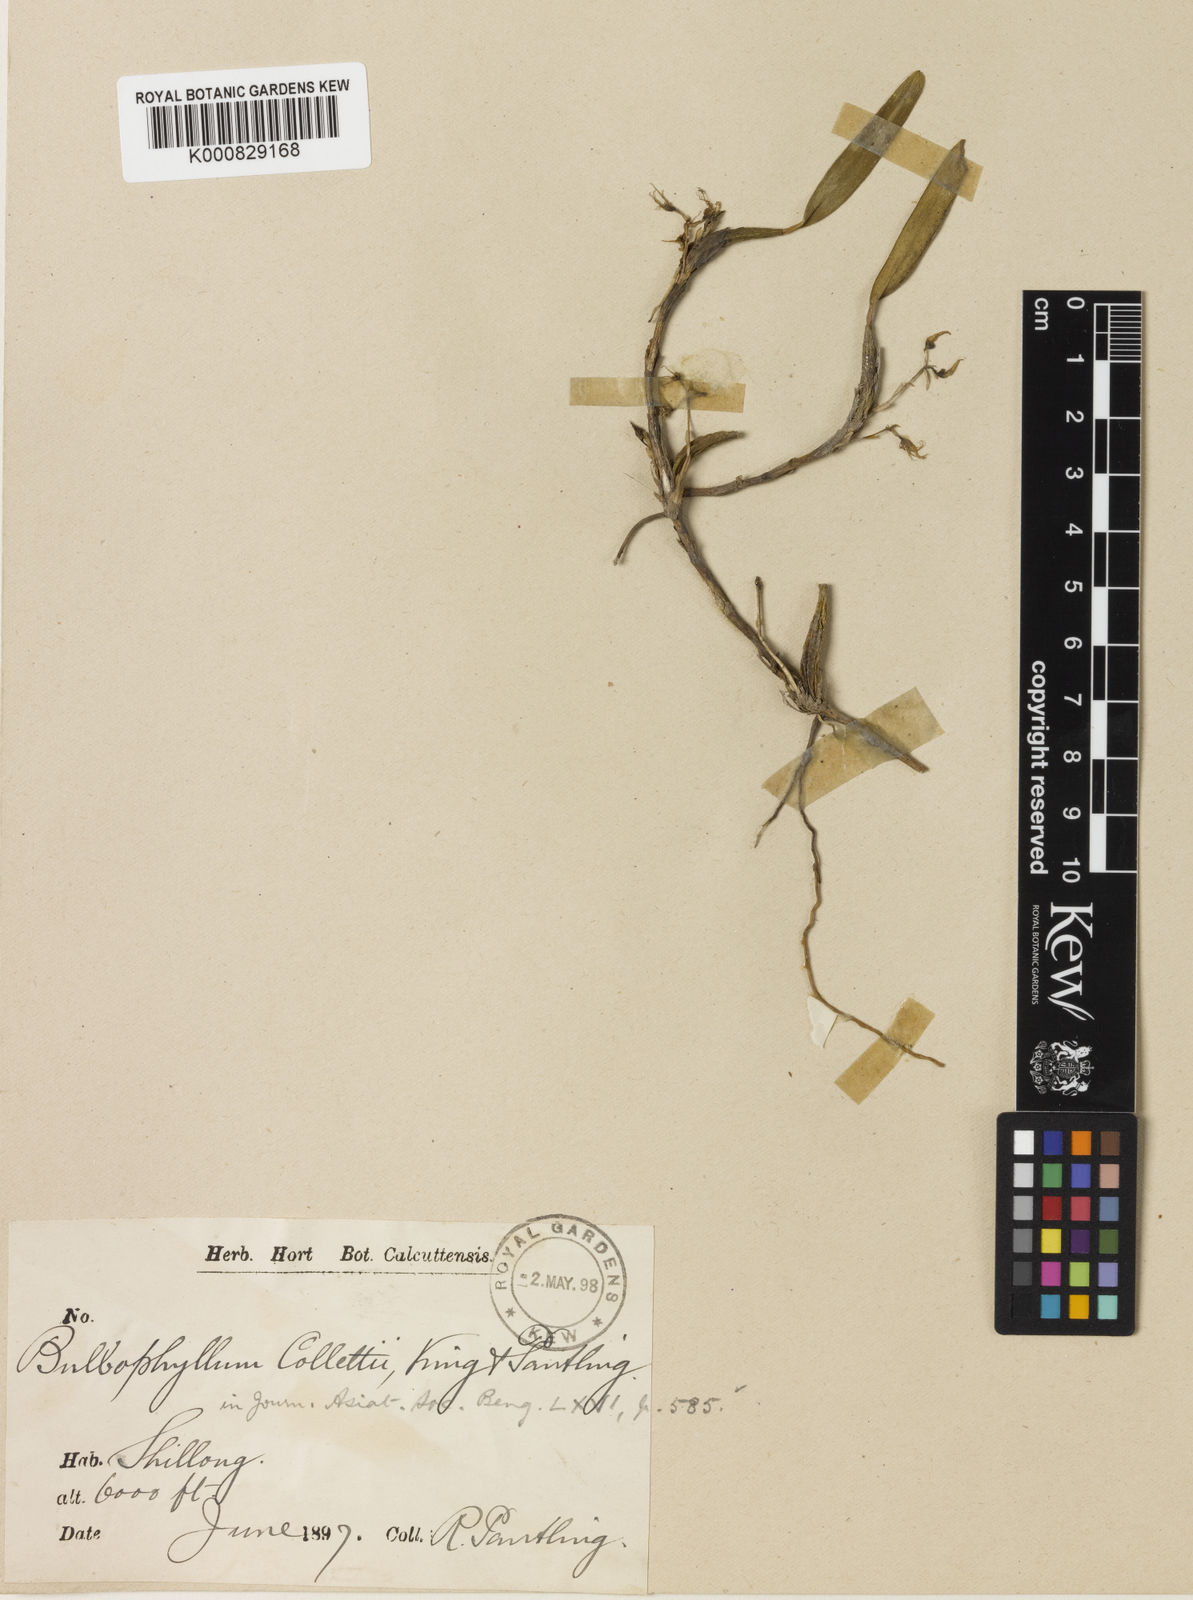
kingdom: Plantae
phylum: Tracheophyta
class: Liliopsida
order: Asparagales
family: Orchidaceae
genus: Bulbophyllum
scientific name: Bulbophyllum collettii
